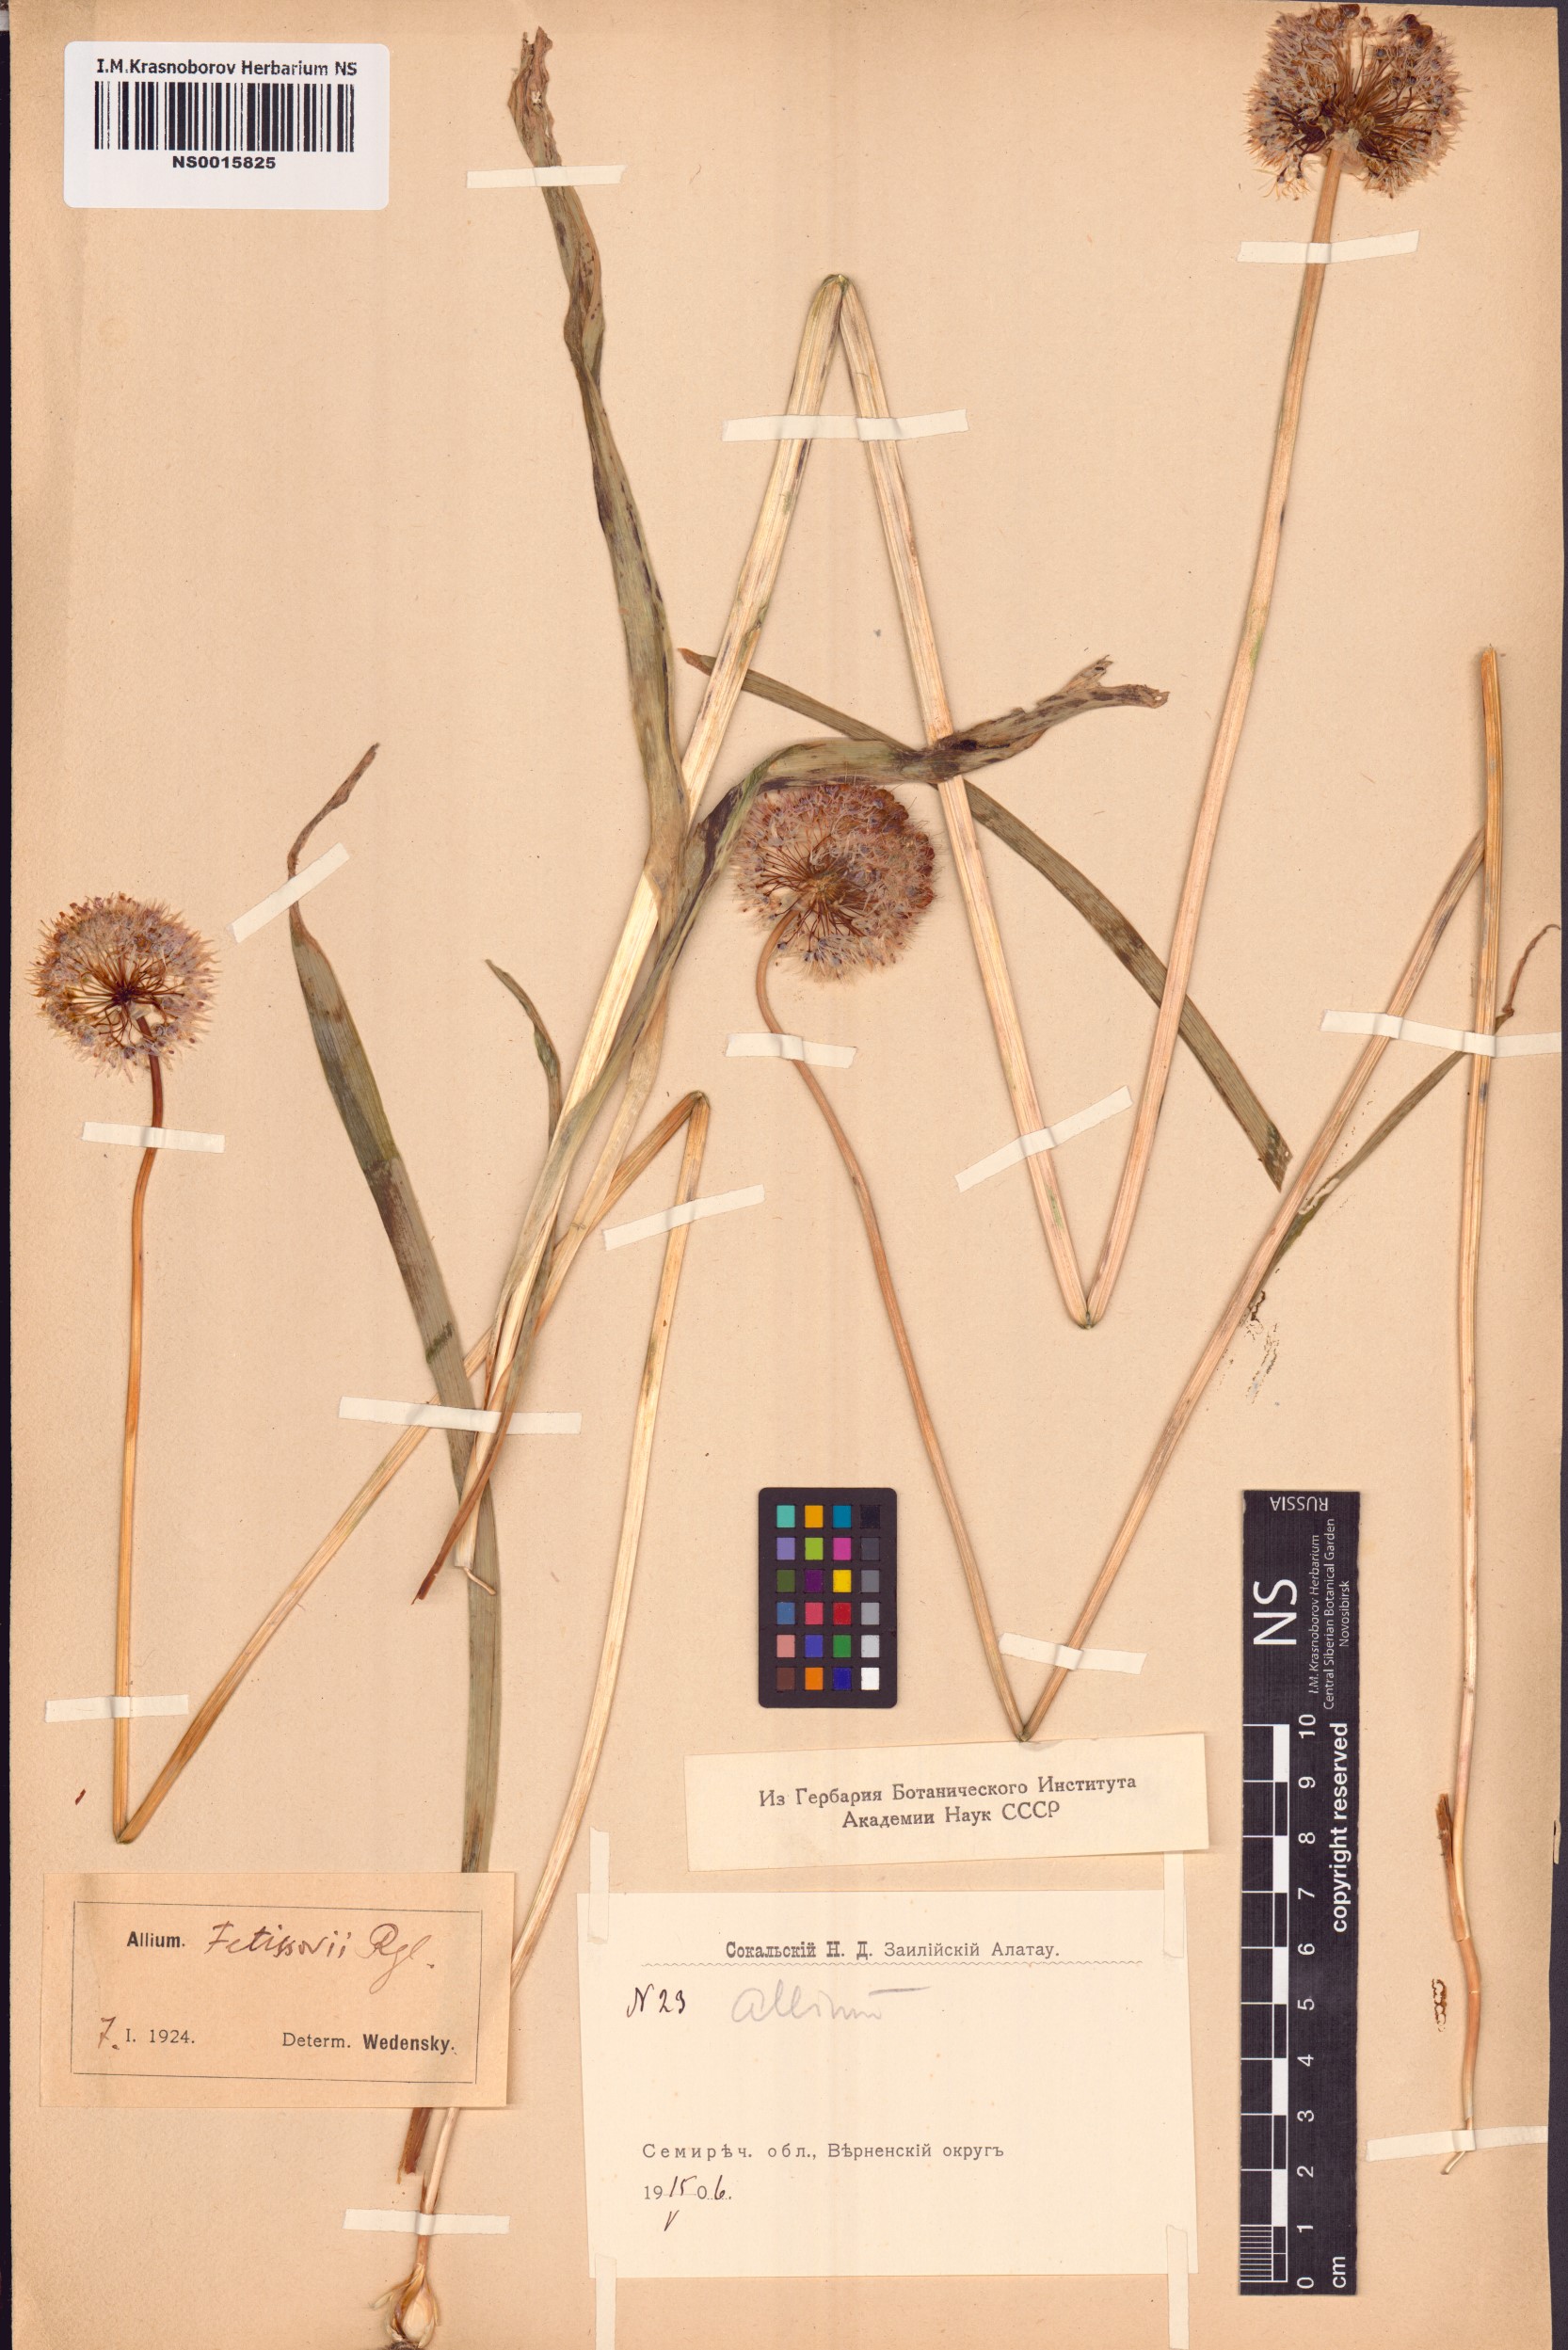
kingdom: Plantae
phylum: Tracheophyta
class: Liliopsida
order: Asparagales
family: Amaryllidaceae
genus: Allium
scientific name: Allium fetisowii
